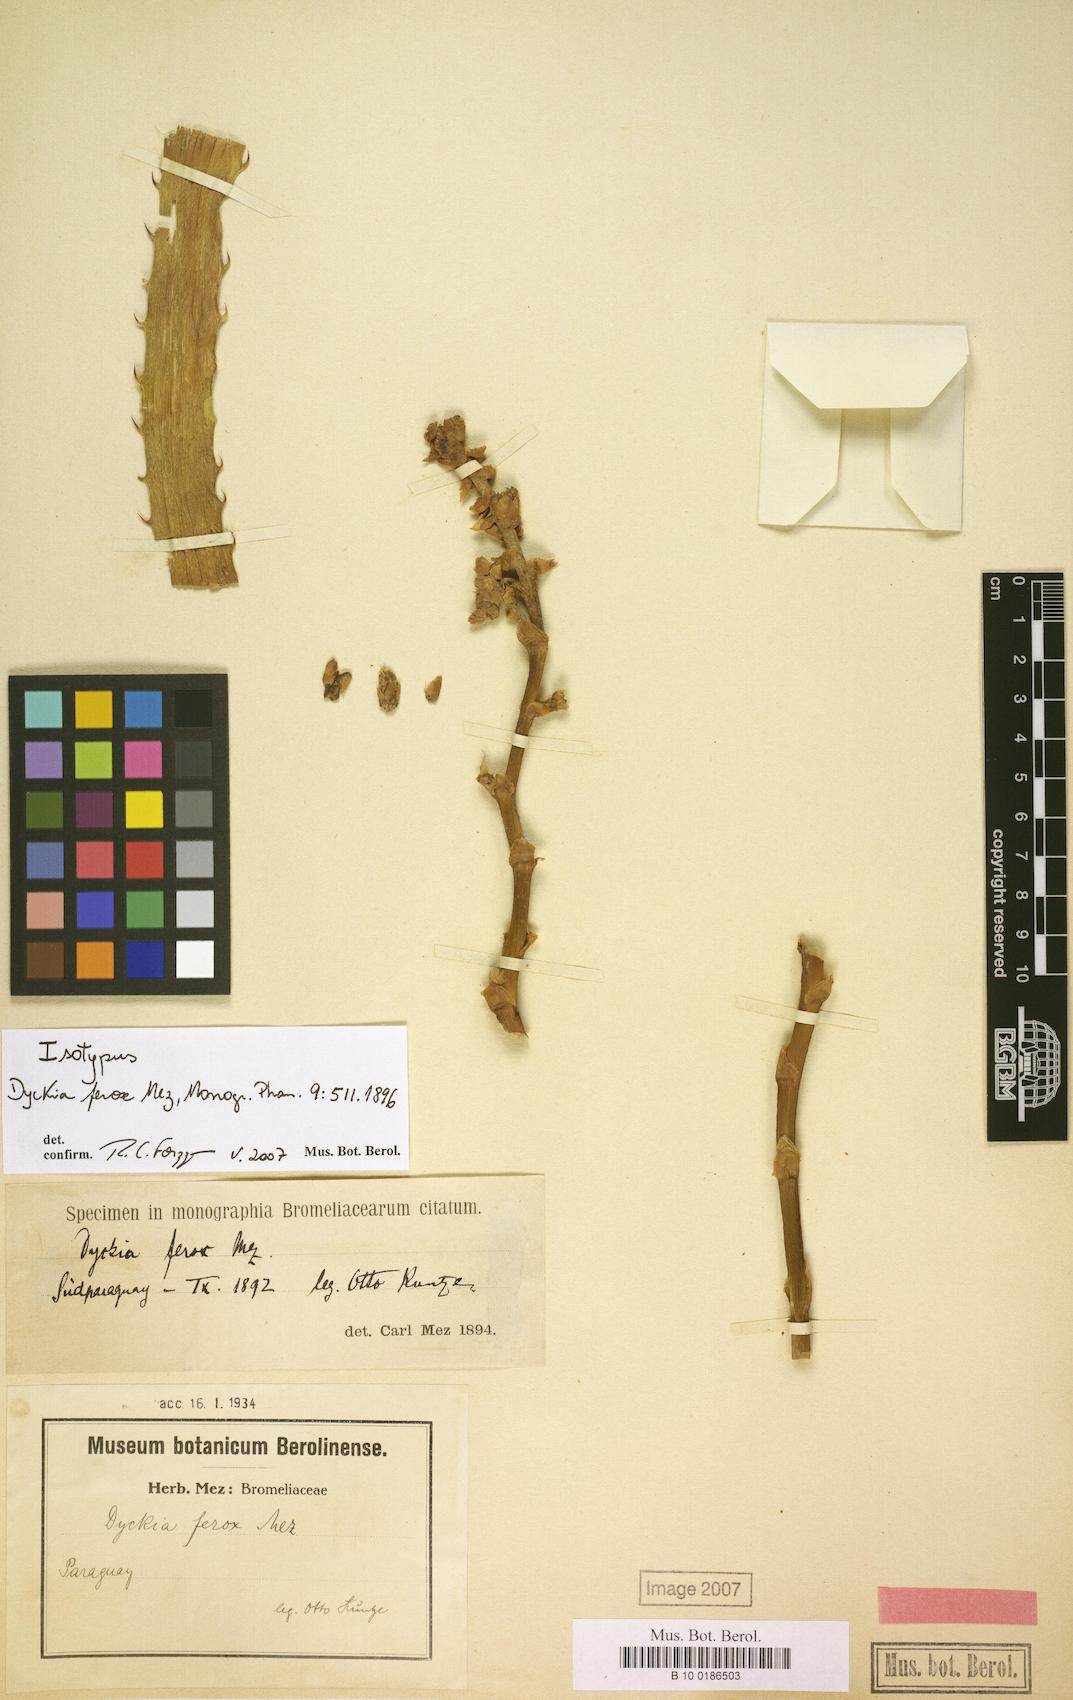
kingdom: Plantae
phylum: Tracheophyta
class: Liliopsida
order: Poales
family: Bromeliaceae
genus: Dyckia
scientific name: Dyckia ferox
